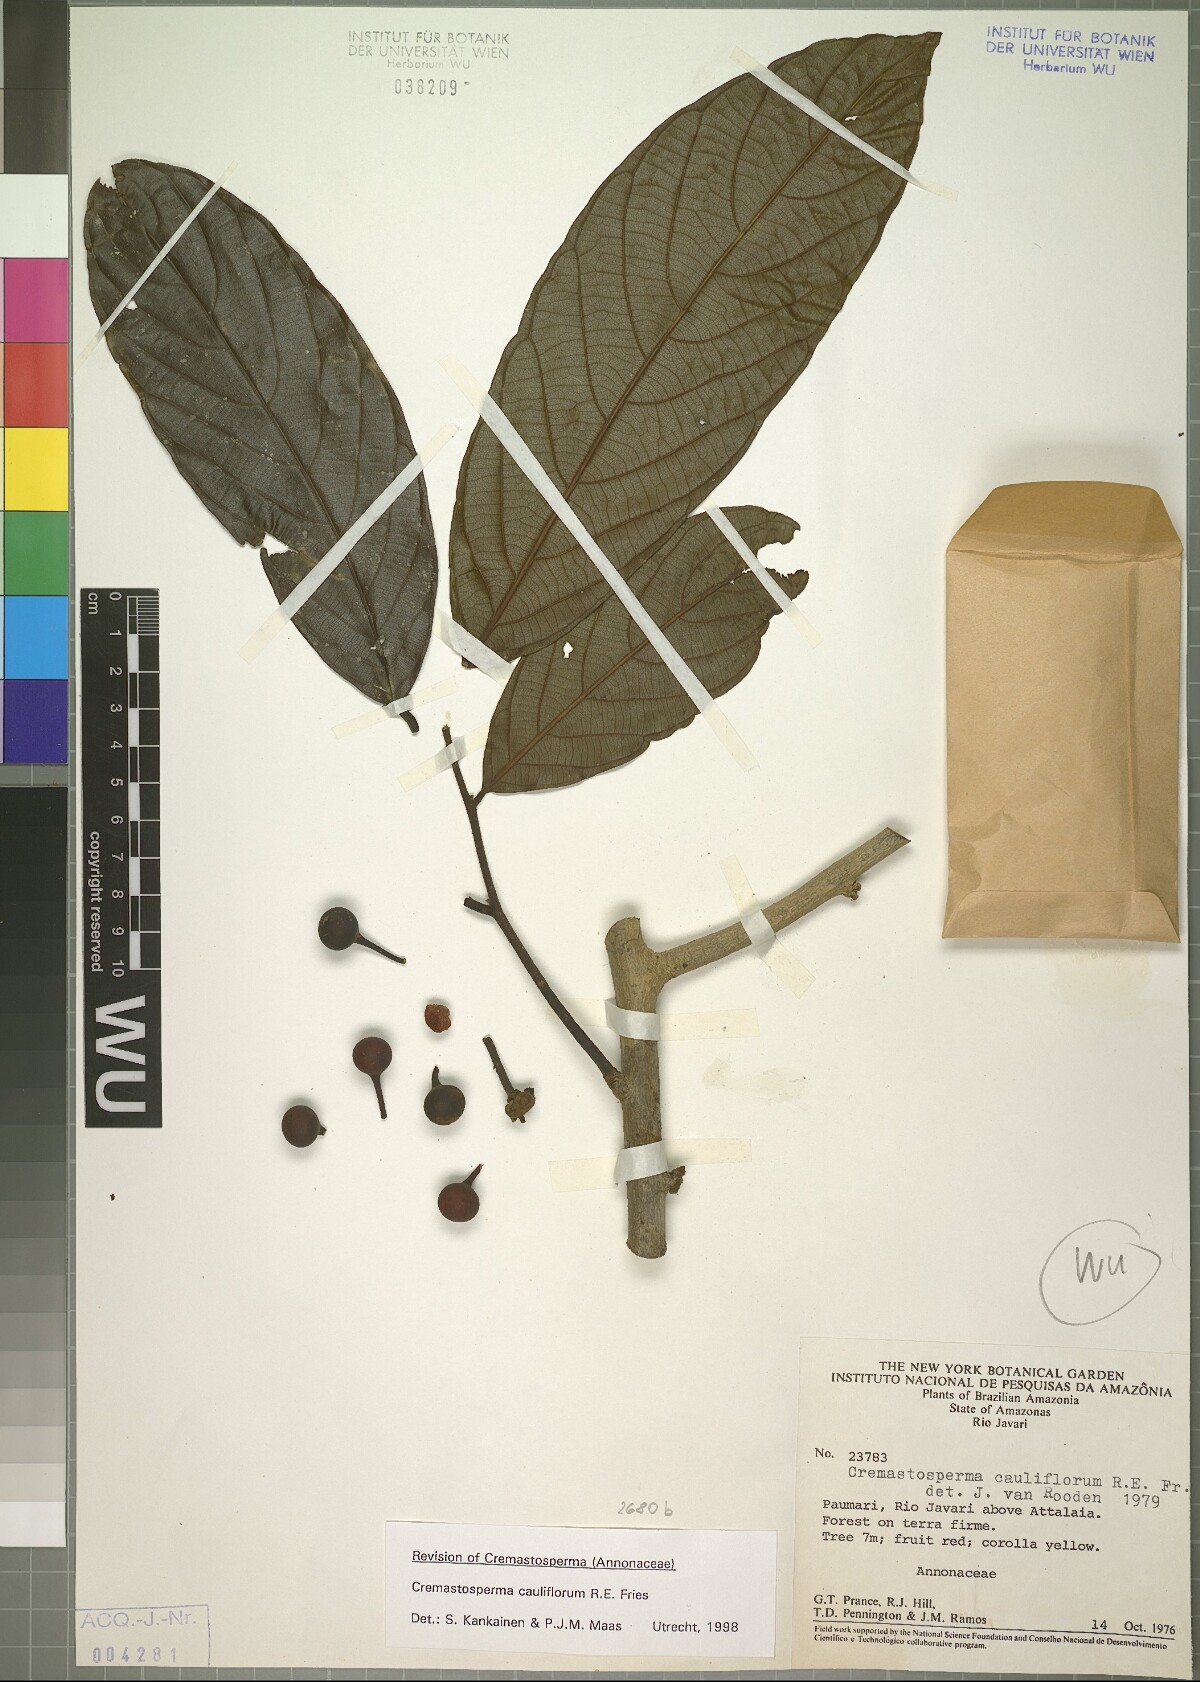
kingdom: Plantae
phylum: Tracheophyta
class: Magnoliopsida
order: Magnoliales
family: Annonaceae
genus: Cremastosperma
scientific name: Cremastosperma cauliflorum
